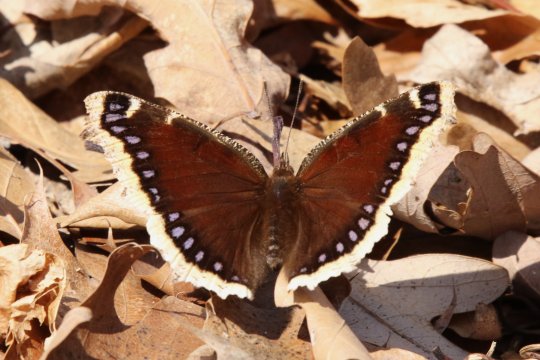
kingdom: Animalia
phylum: Arthropoda
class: Insecta
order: Lepidoptera
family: Nymphalidae
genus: Nymphalis
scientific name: Nymphalis antiopa
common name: Mourning Cloak
